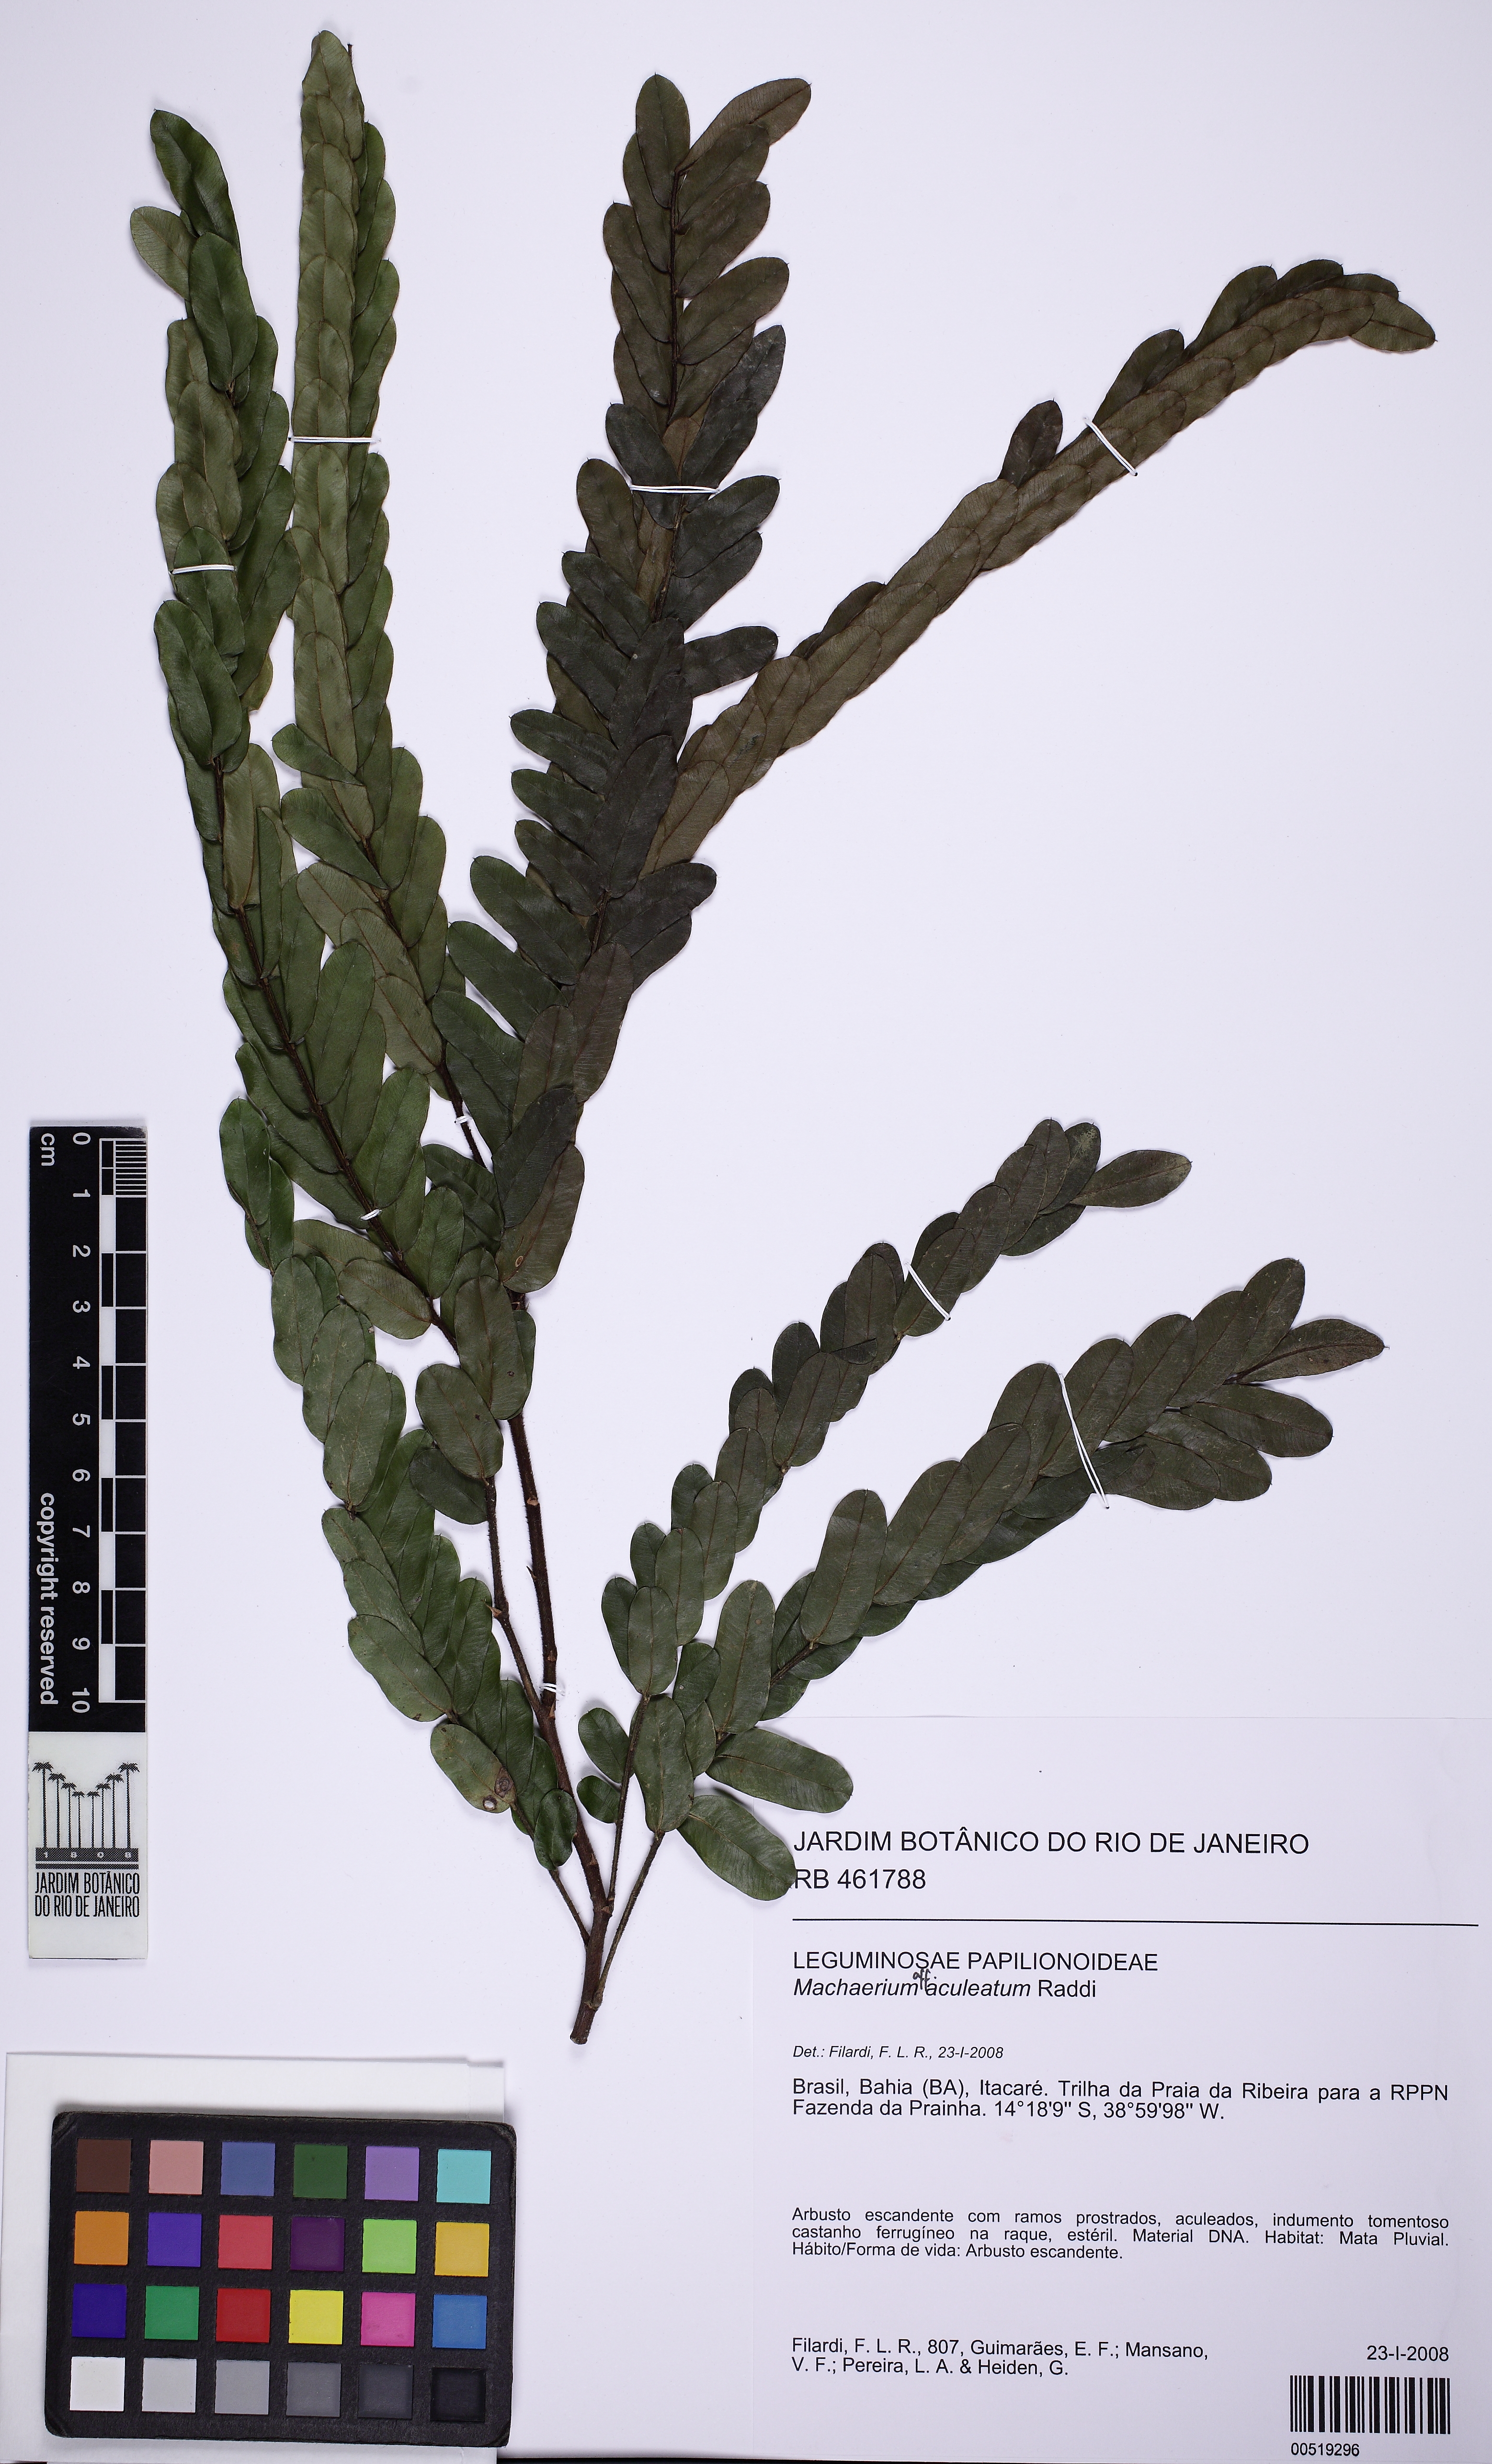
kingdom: Plantae
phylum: Tracheophyta
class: Magnoliopsida
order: Fabales
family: Fabaceae
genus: Machaerium
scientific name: Machaerium aculeatum
